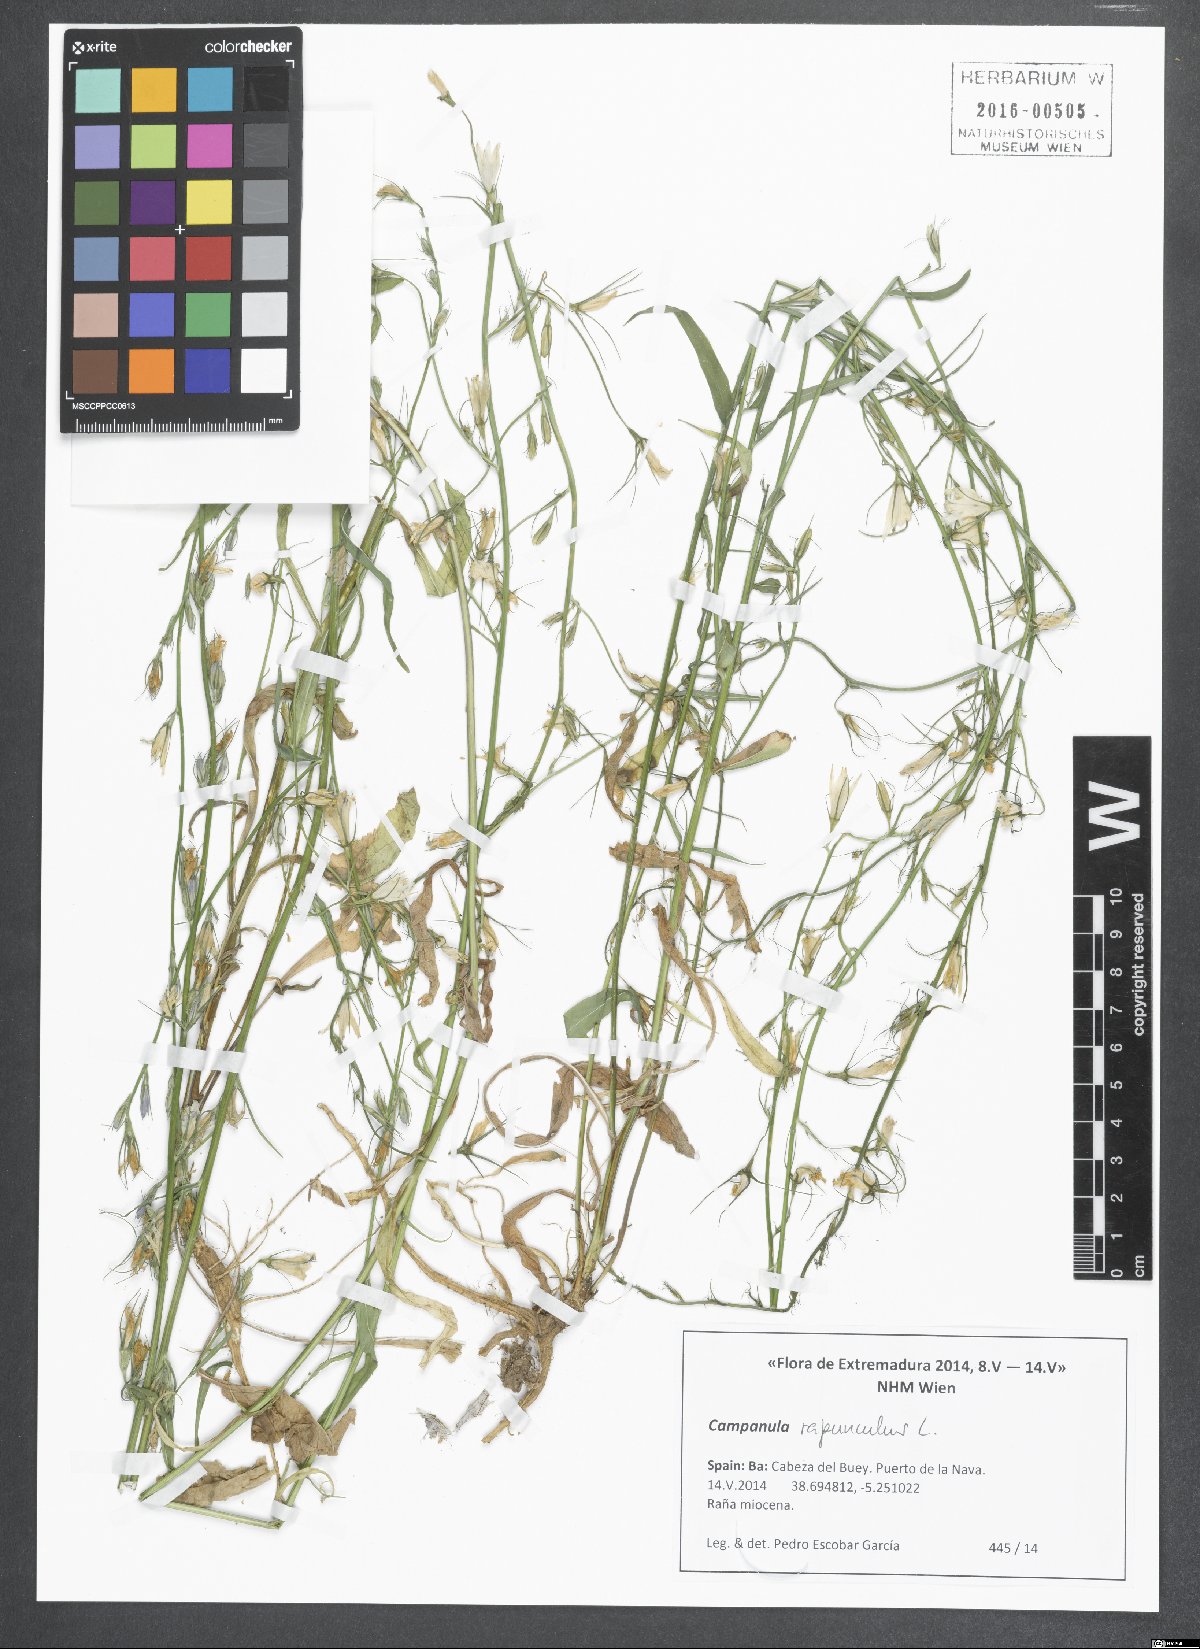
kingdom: Plantae
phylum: Tracheophyta
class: Magnoliopsida
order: Asterales
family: Campanulaceae
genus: Campanula
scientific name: Campanula rapunculoides
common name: Creeping bellflower
